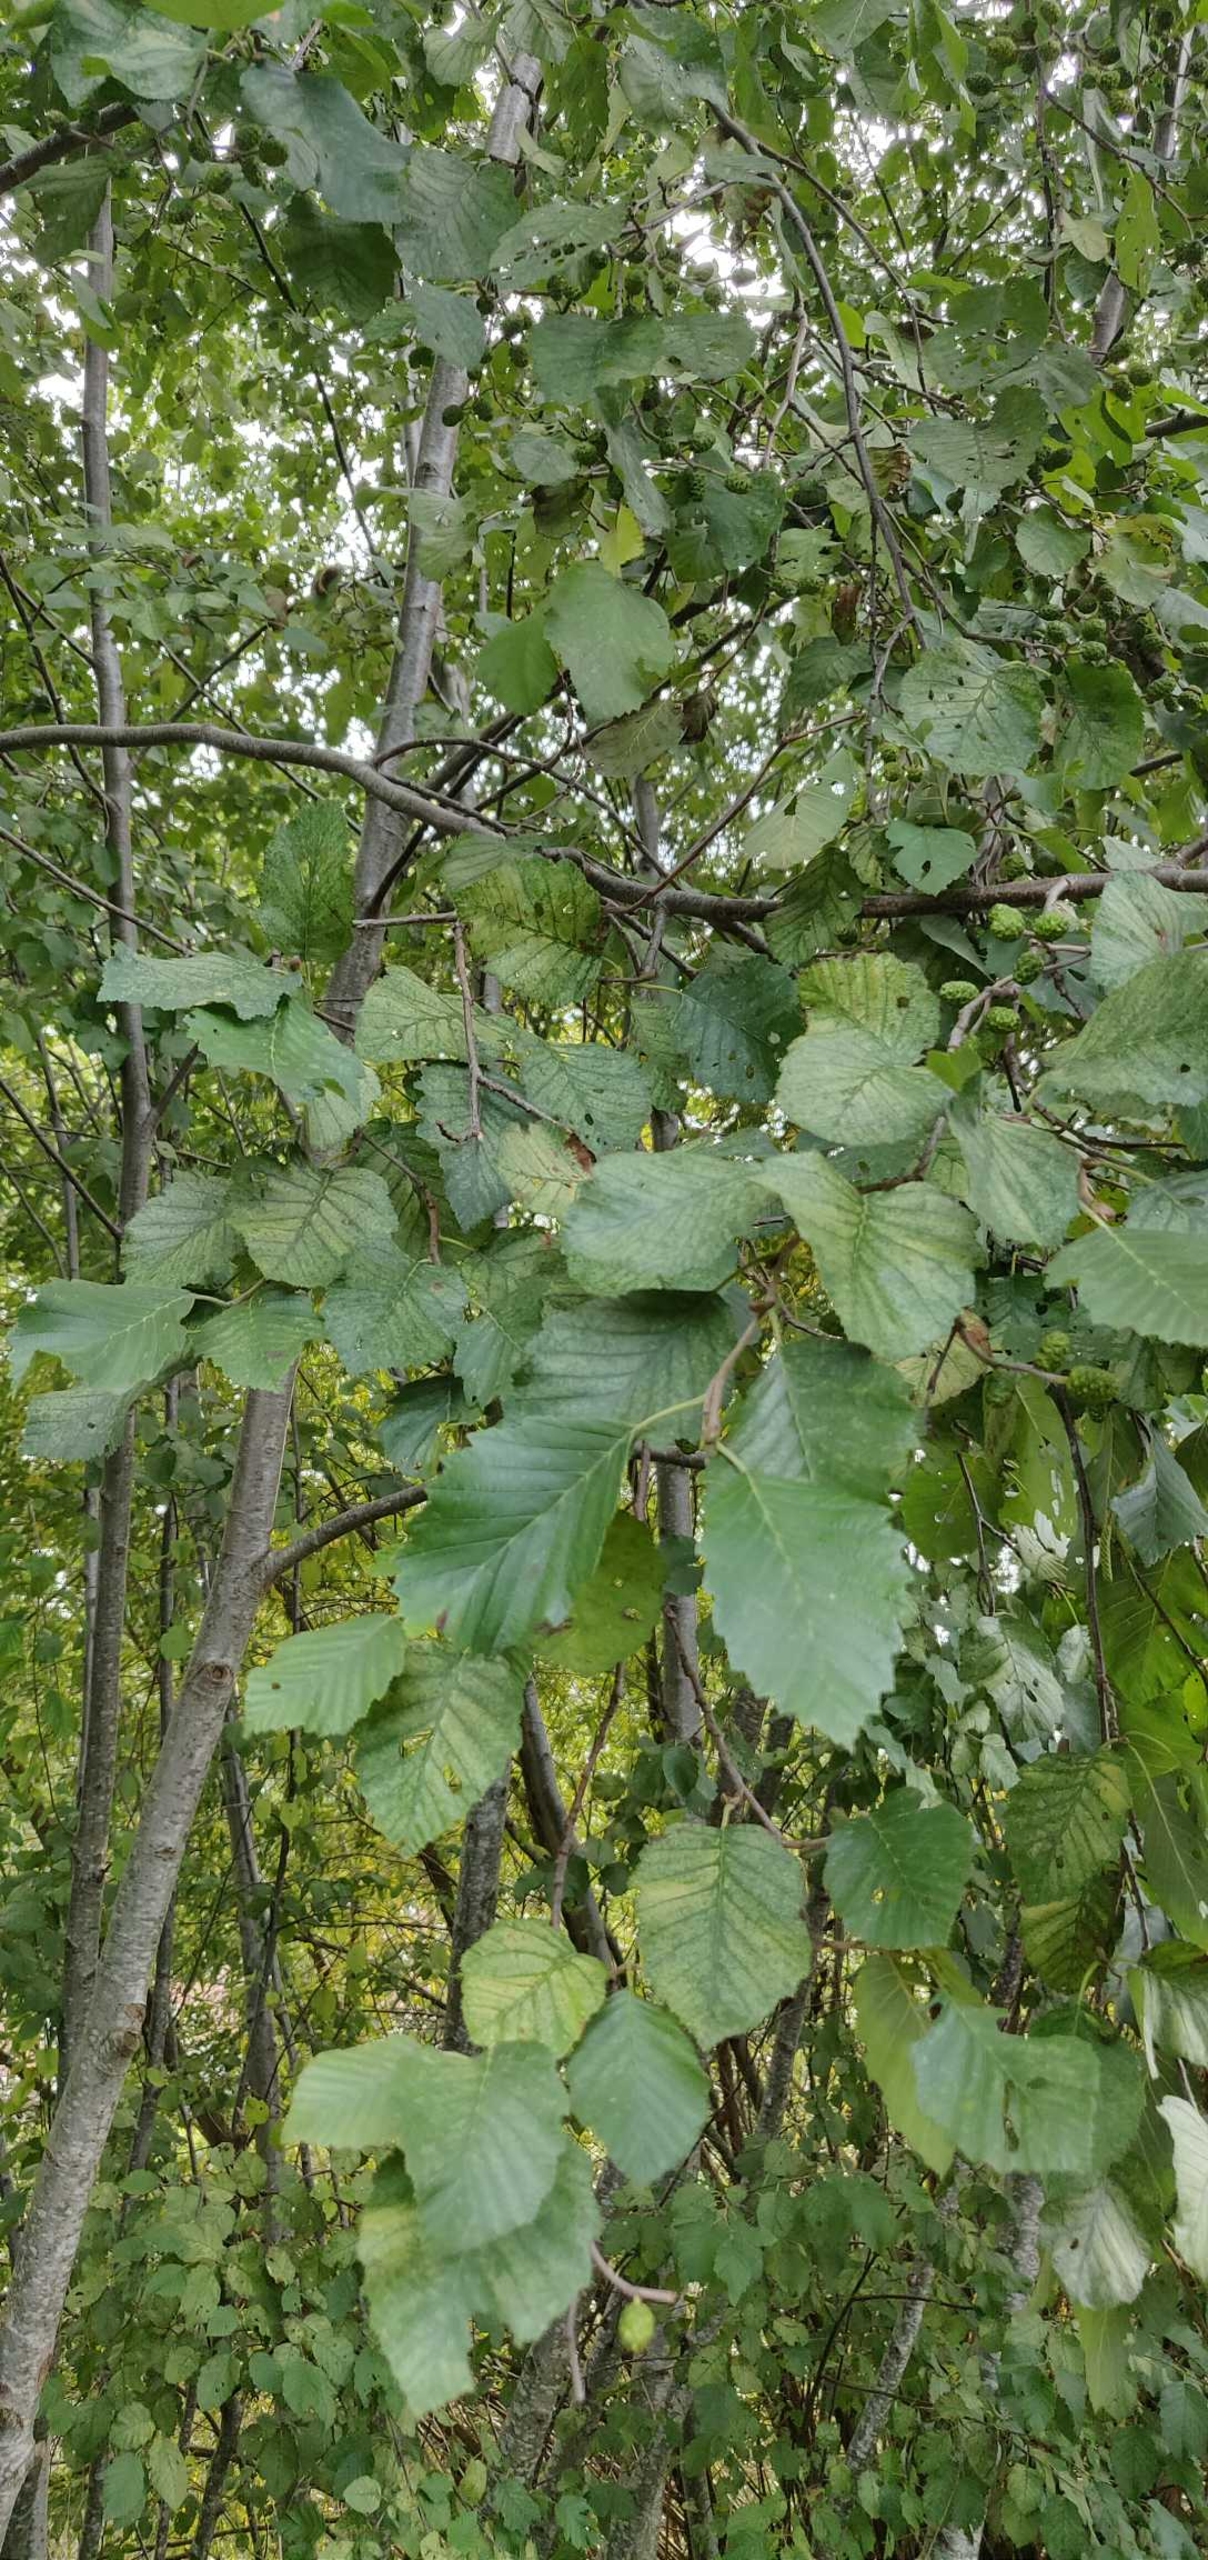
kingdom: Plantae
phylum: Tracheophyta
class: Magnoliopsida
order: Fagales
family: Betulaceae
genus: Alnus
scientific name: Alnus incana
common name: Grå-el/hvid-el
